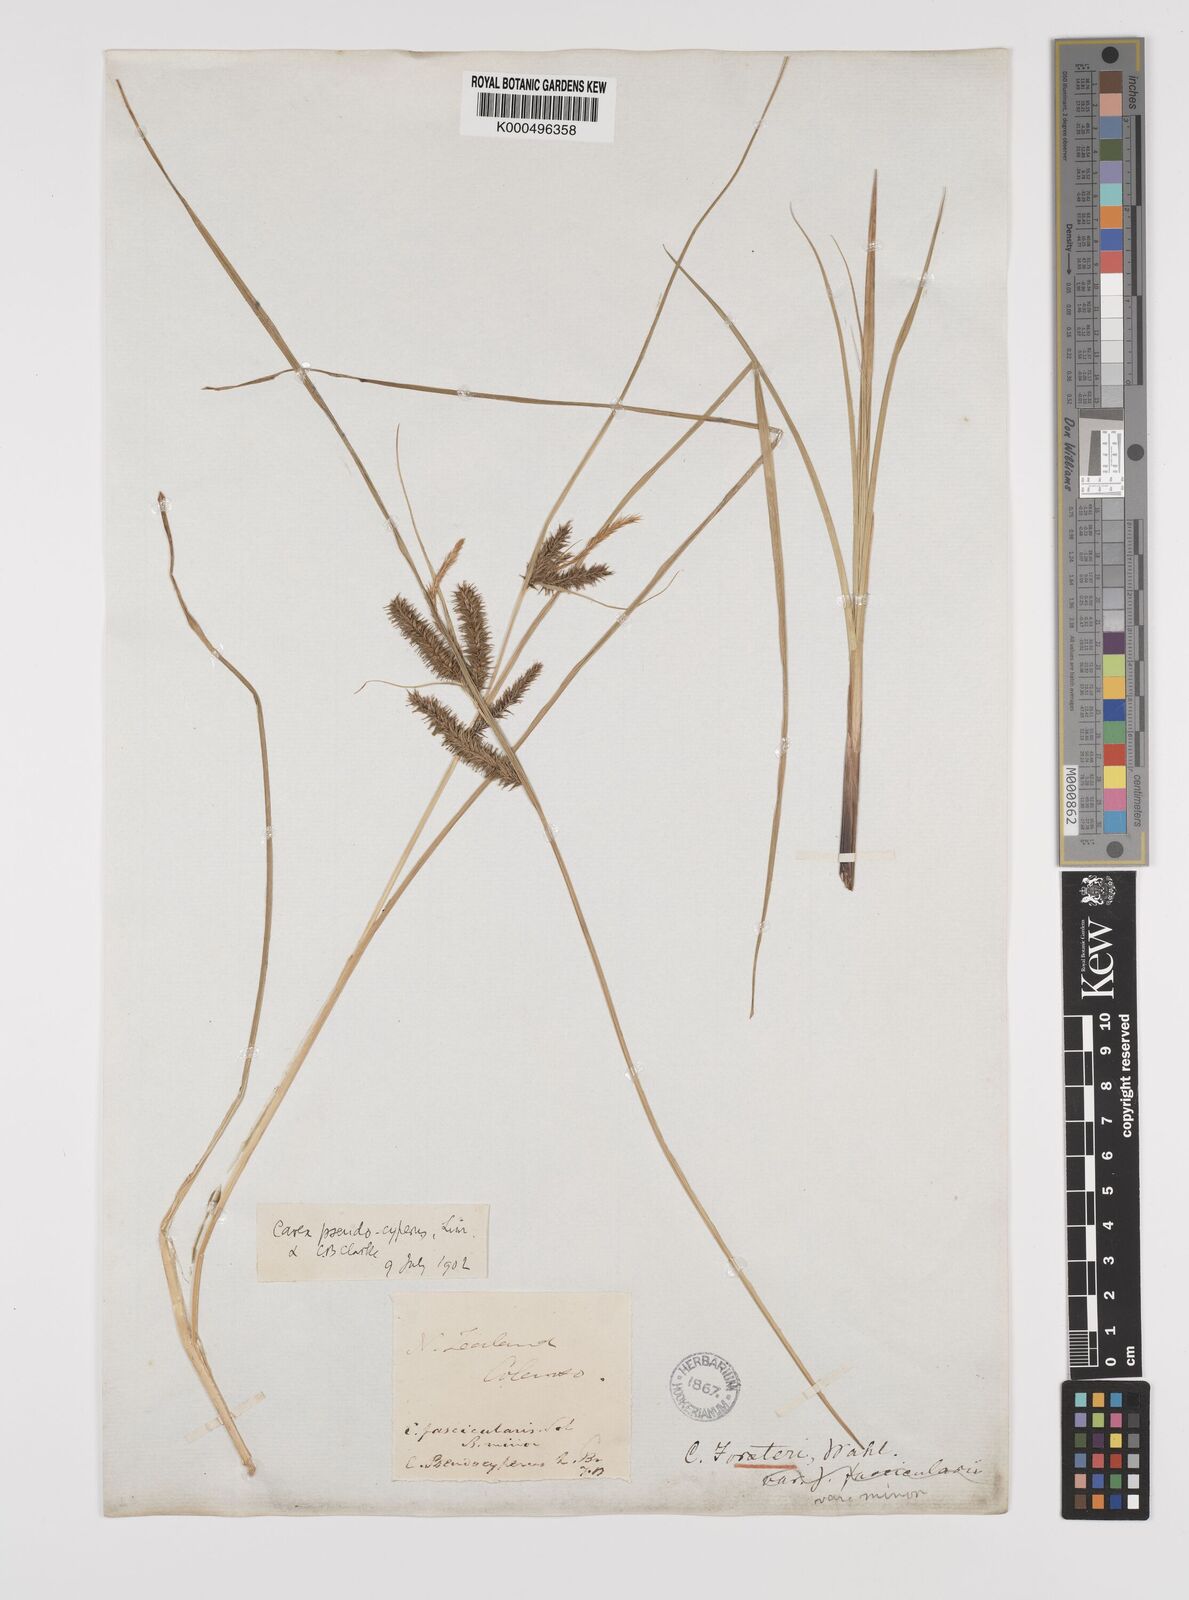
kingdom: Plantae
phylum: Tracheophyta
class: Liliopsida
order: Poales
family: Cyperaceae
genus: Carex
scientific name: Carex maorica
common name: Maori sedge
